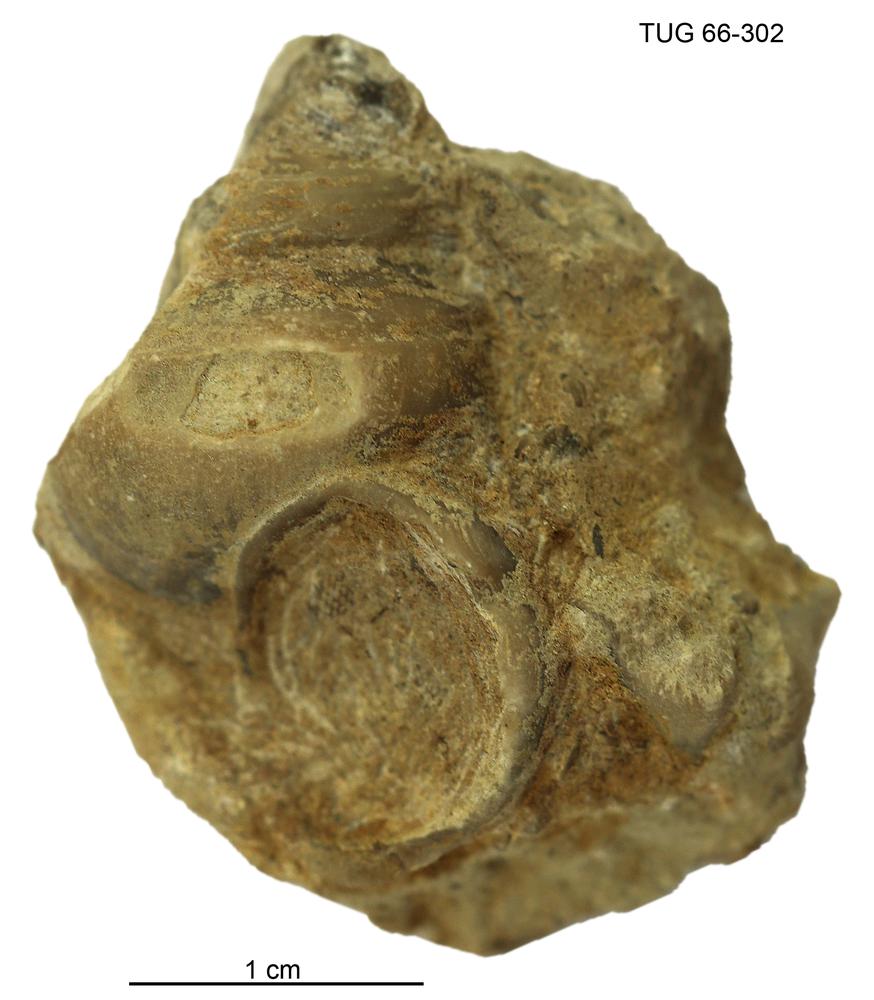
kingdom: Animalia
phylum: Mollusca
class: Gastropoda
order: Pleurotomariida
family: Phanerotrematidae
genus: Brachytomaria
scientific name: Brachytomaria nodulosa
